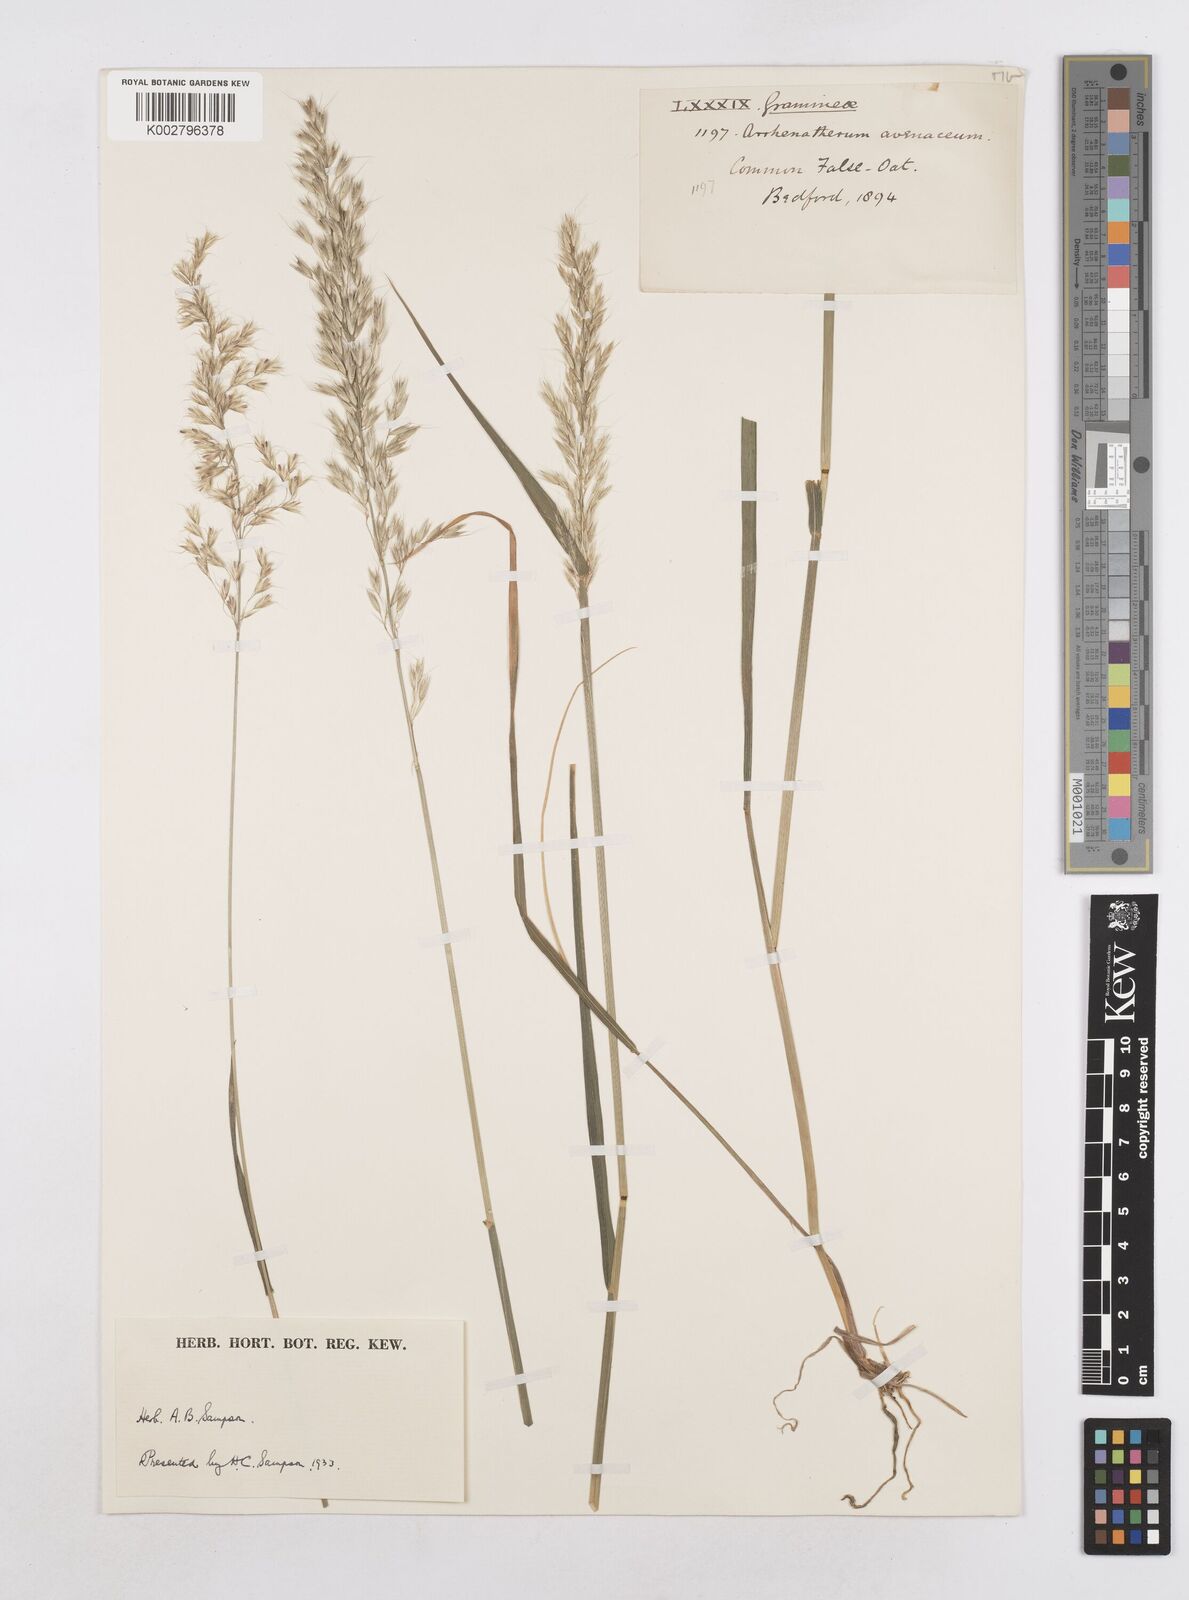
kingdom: Plantae
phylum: Tracheophyta
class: Liliopsida
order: Poales
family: Poaceae
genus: Arrhenatherum
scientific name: Arrhenatherum elatius
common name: Tall oatgrass
